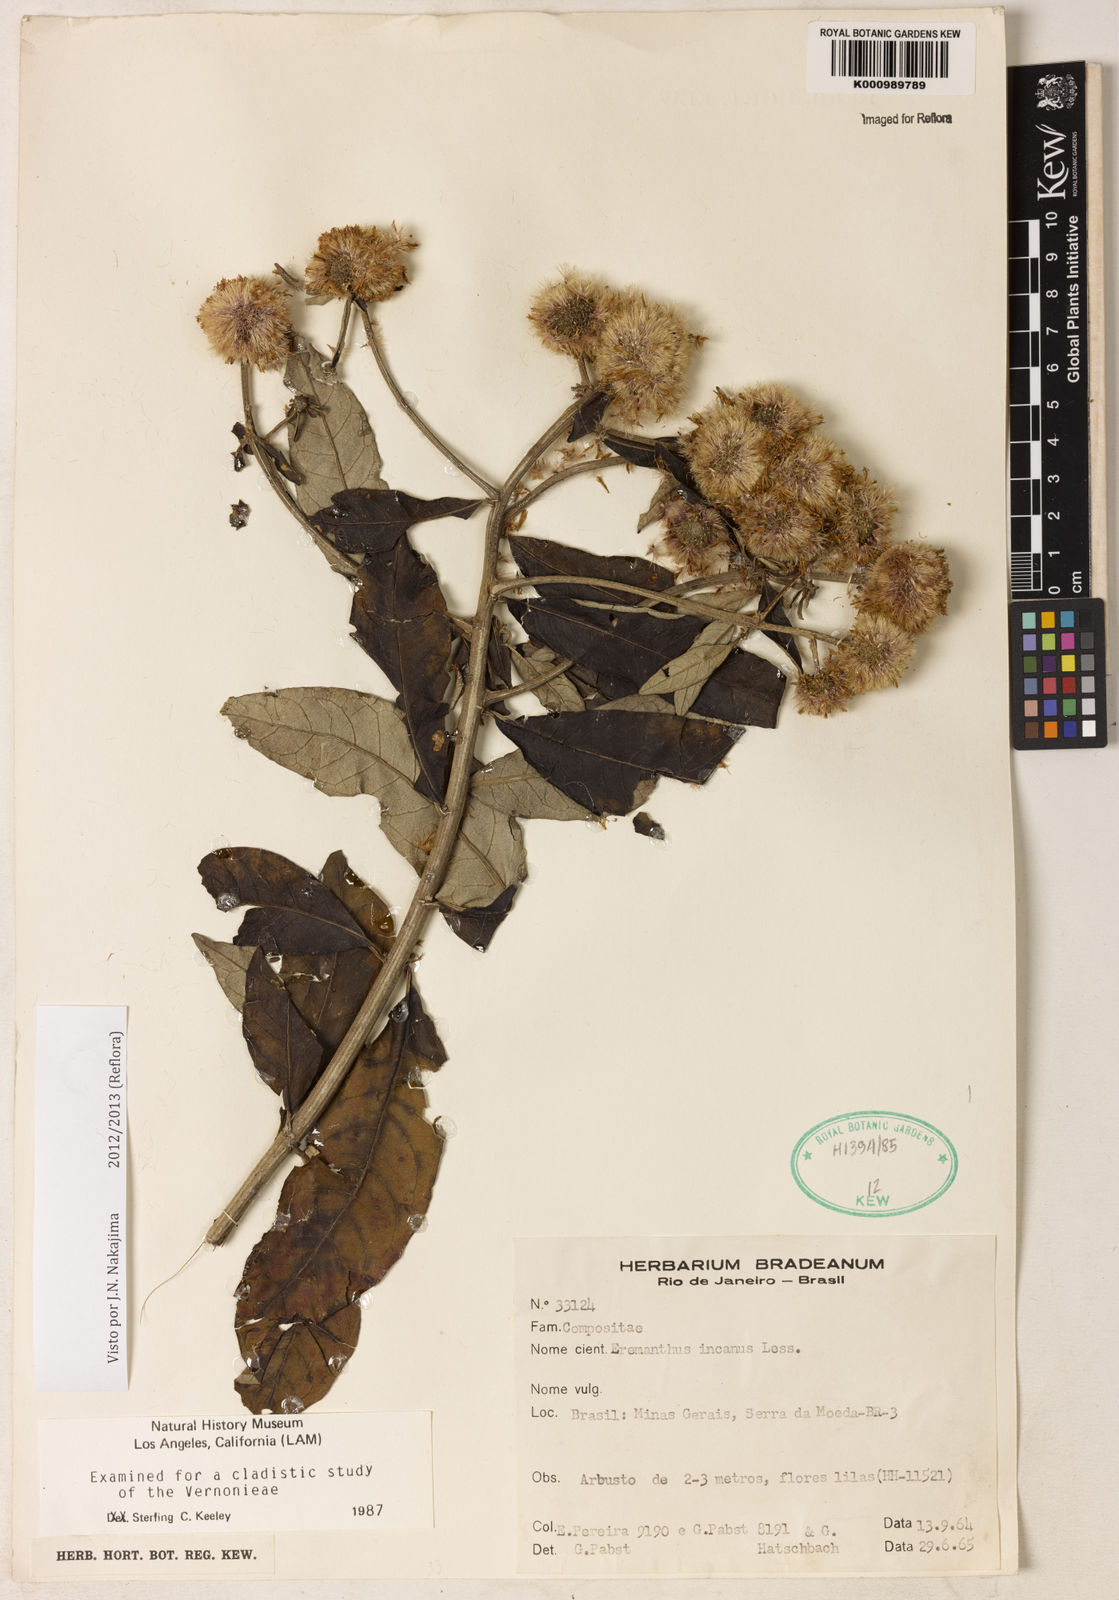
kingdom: Plantae
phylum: Tracheophyta
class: Magnoliopsida
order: Asterales
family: Asteraceae
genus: Eremanthus
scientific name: Eremanthus incanus
